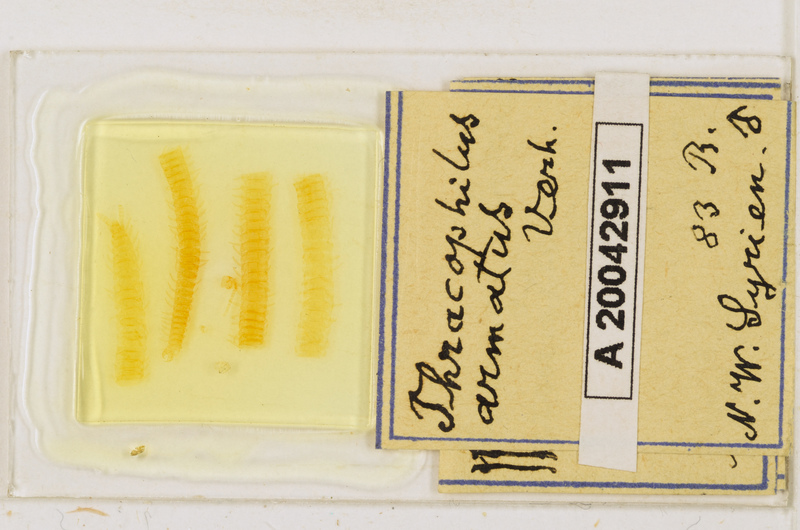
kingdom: Animalia
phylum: Arthropoda
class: Chilopoda
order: Geophilomorpha
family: Himantariidae
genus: Thracophilus
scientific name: Thracophilus
